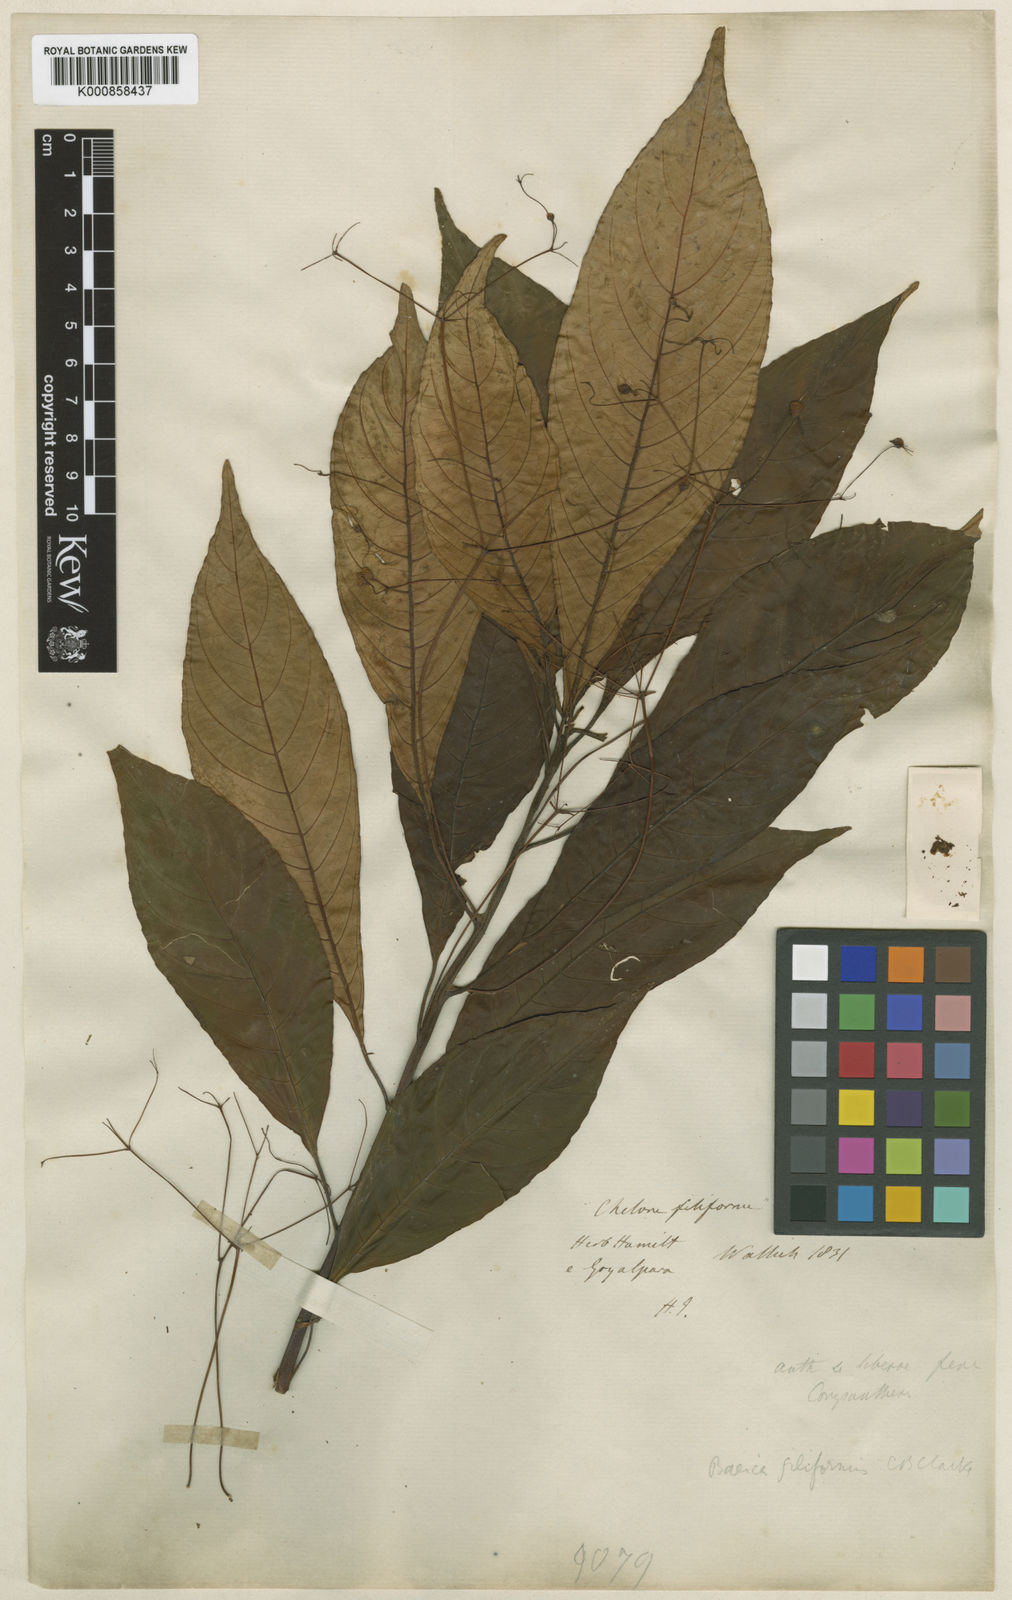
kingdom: Plantae
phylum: Tracheophyta
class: Magnoliopsida
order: Lamiales
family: Gesneriaceae
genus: Boeica
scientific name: Boeica filiformis
